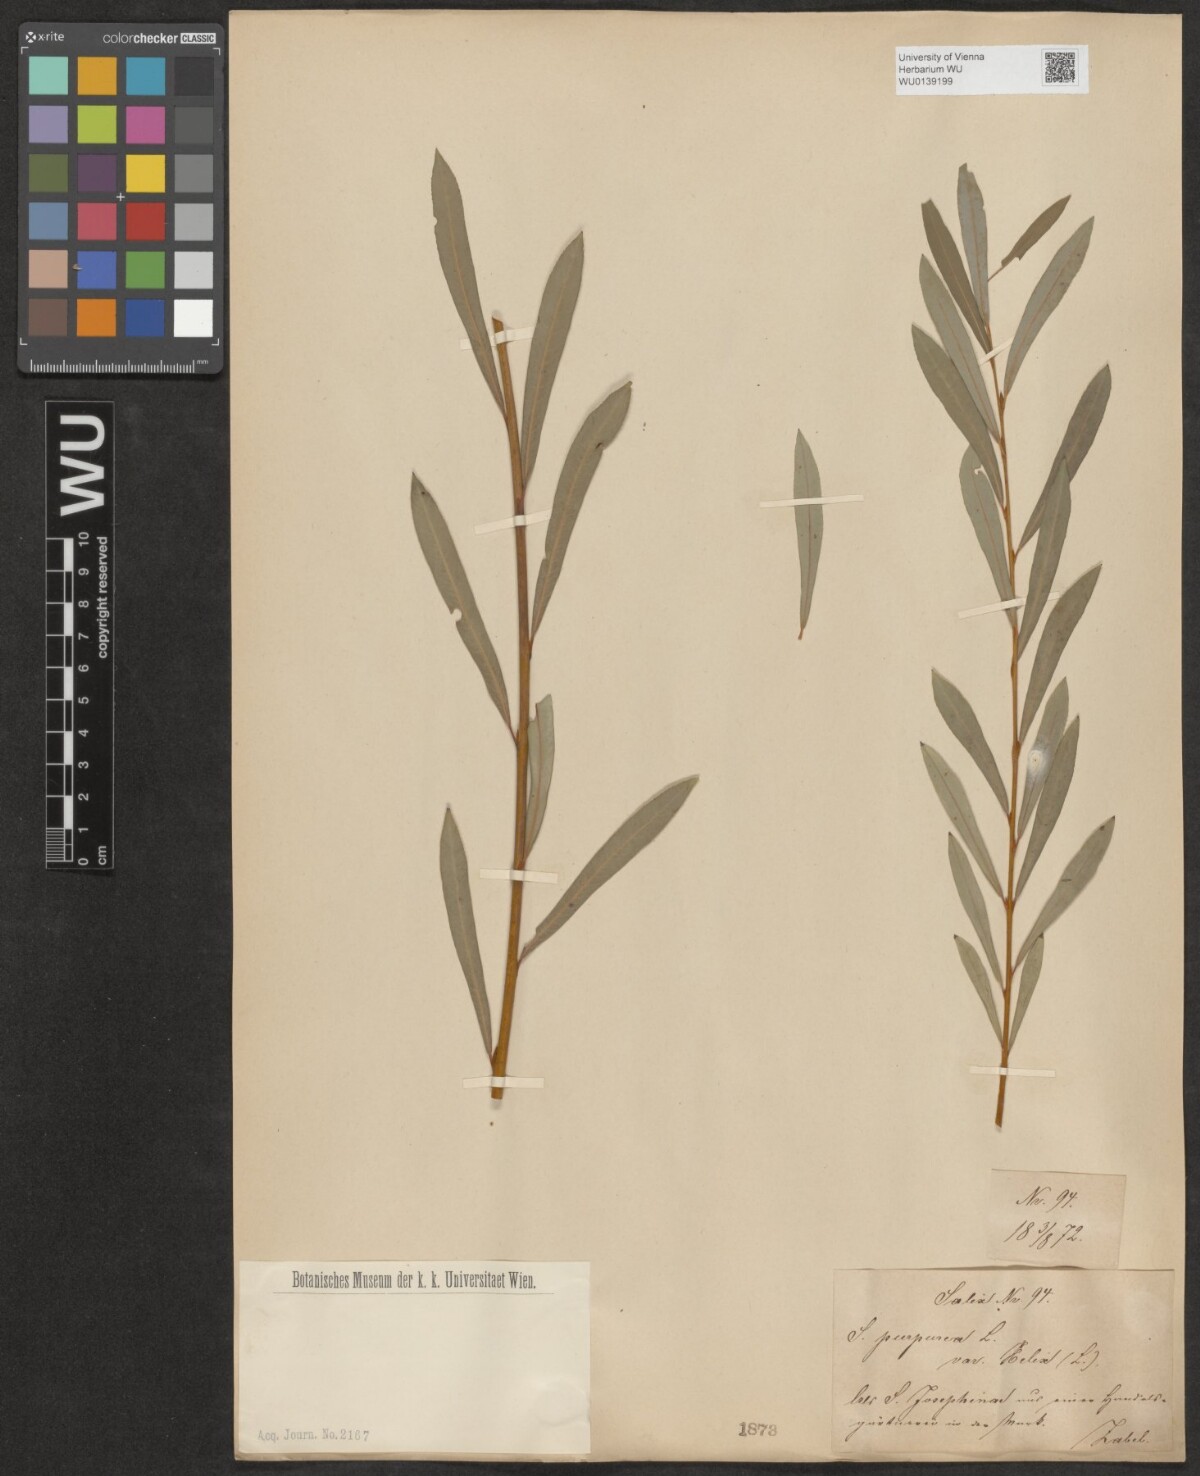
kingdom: Plantae
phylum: Tracheophyta
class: Magnoliopsida
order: Malpighiales
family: Salicaceae
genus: Salix
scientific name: Salix purpurea
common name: Purple willow
